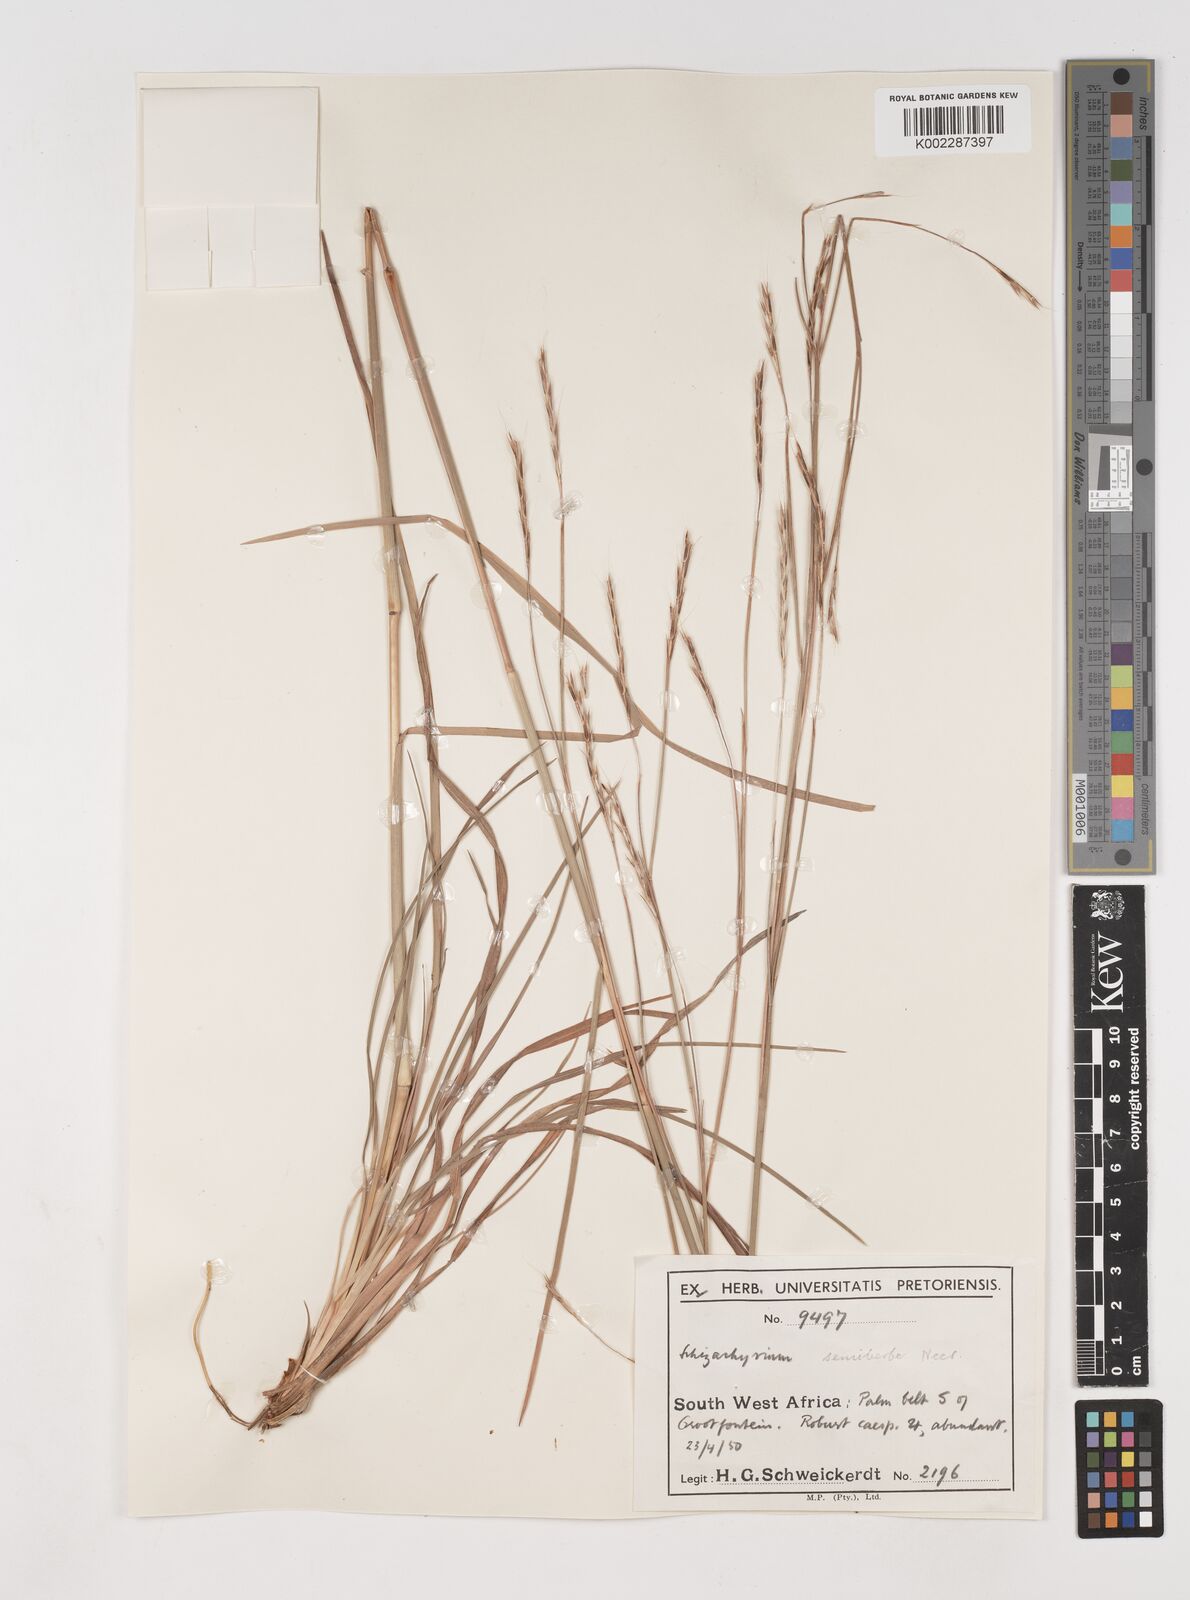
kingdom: Plantae
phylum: Tracheophyta
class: Liliopsida
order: Poales
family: Poaceae
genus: Schizachyrium
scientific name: Schizachyrium sanguineum
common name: Crimson bluestem
